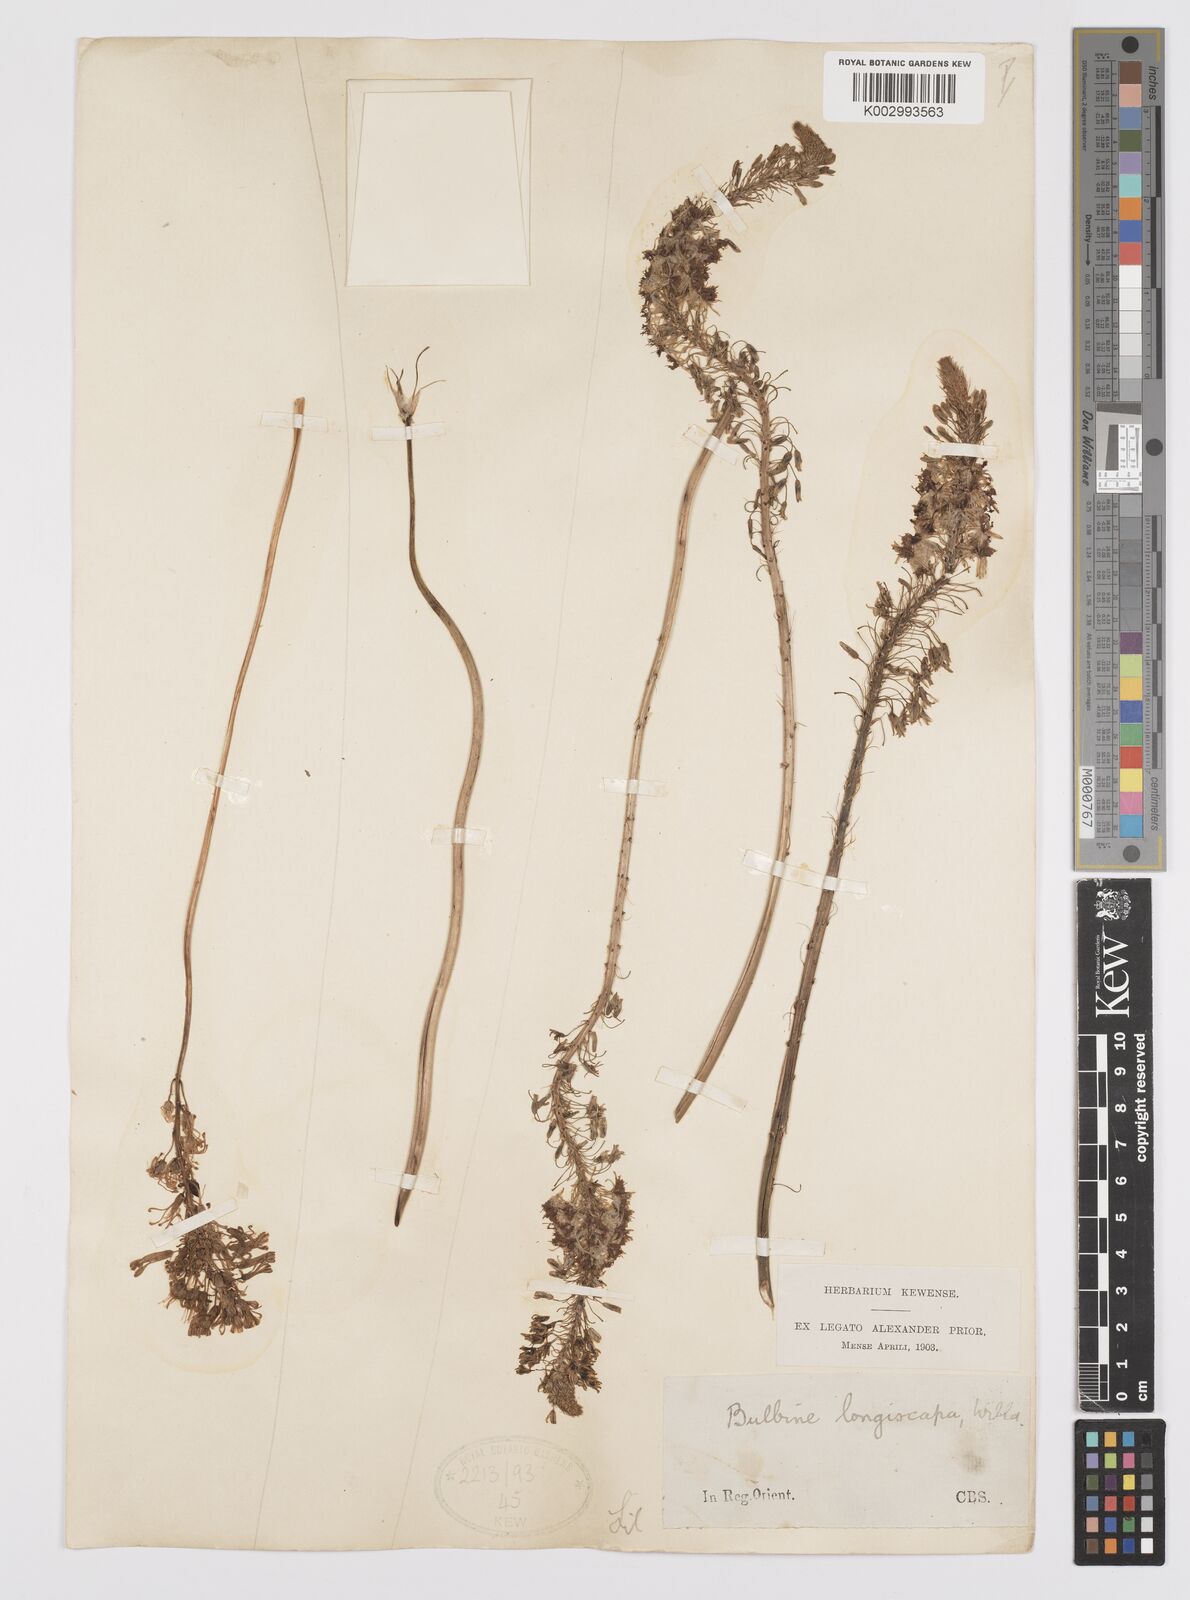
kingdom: Plantae
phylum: Tracheophyta
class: Liliopsida
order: Asparagales
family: Asphodelaceae
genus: Bulbine
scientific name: Bulbine asphodeloides
